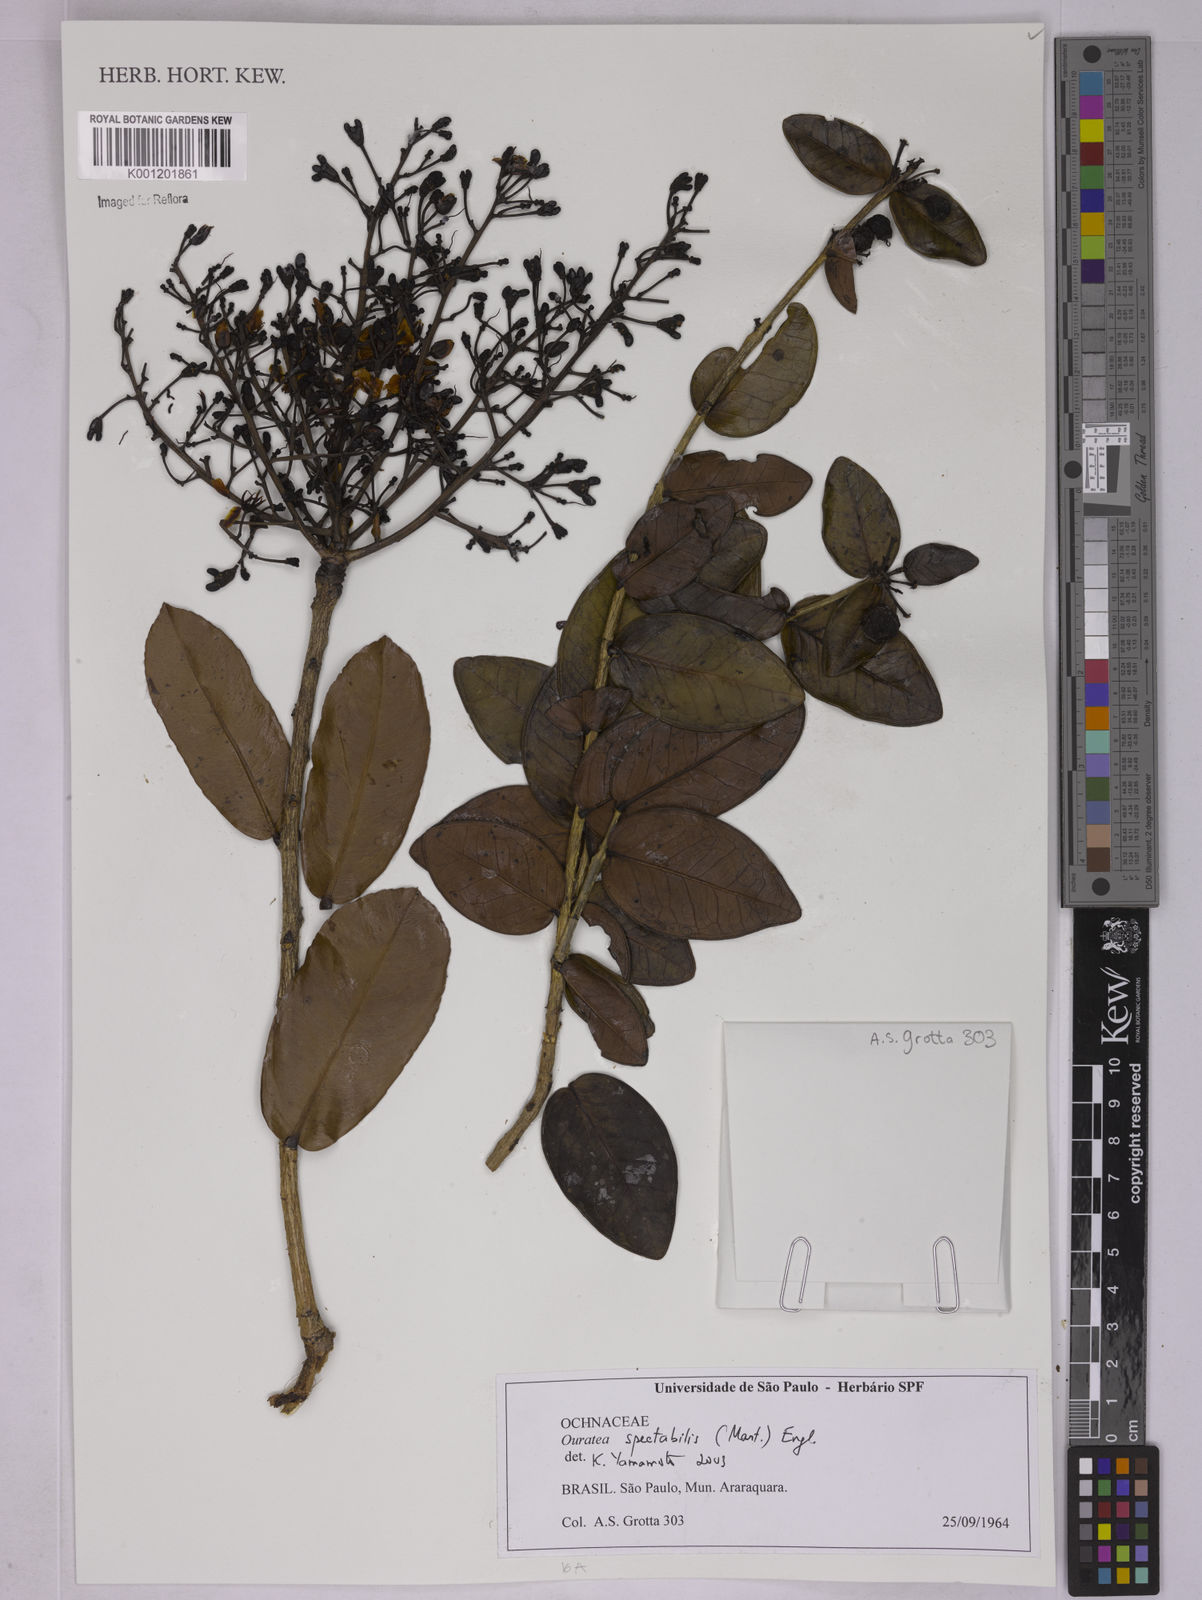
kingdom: Plantae
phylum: Tracheophyta
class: Magnoliopsida
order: Malpighiales
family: Ochnaceae
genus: Ouratea
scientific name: Ouratea spectabilis
